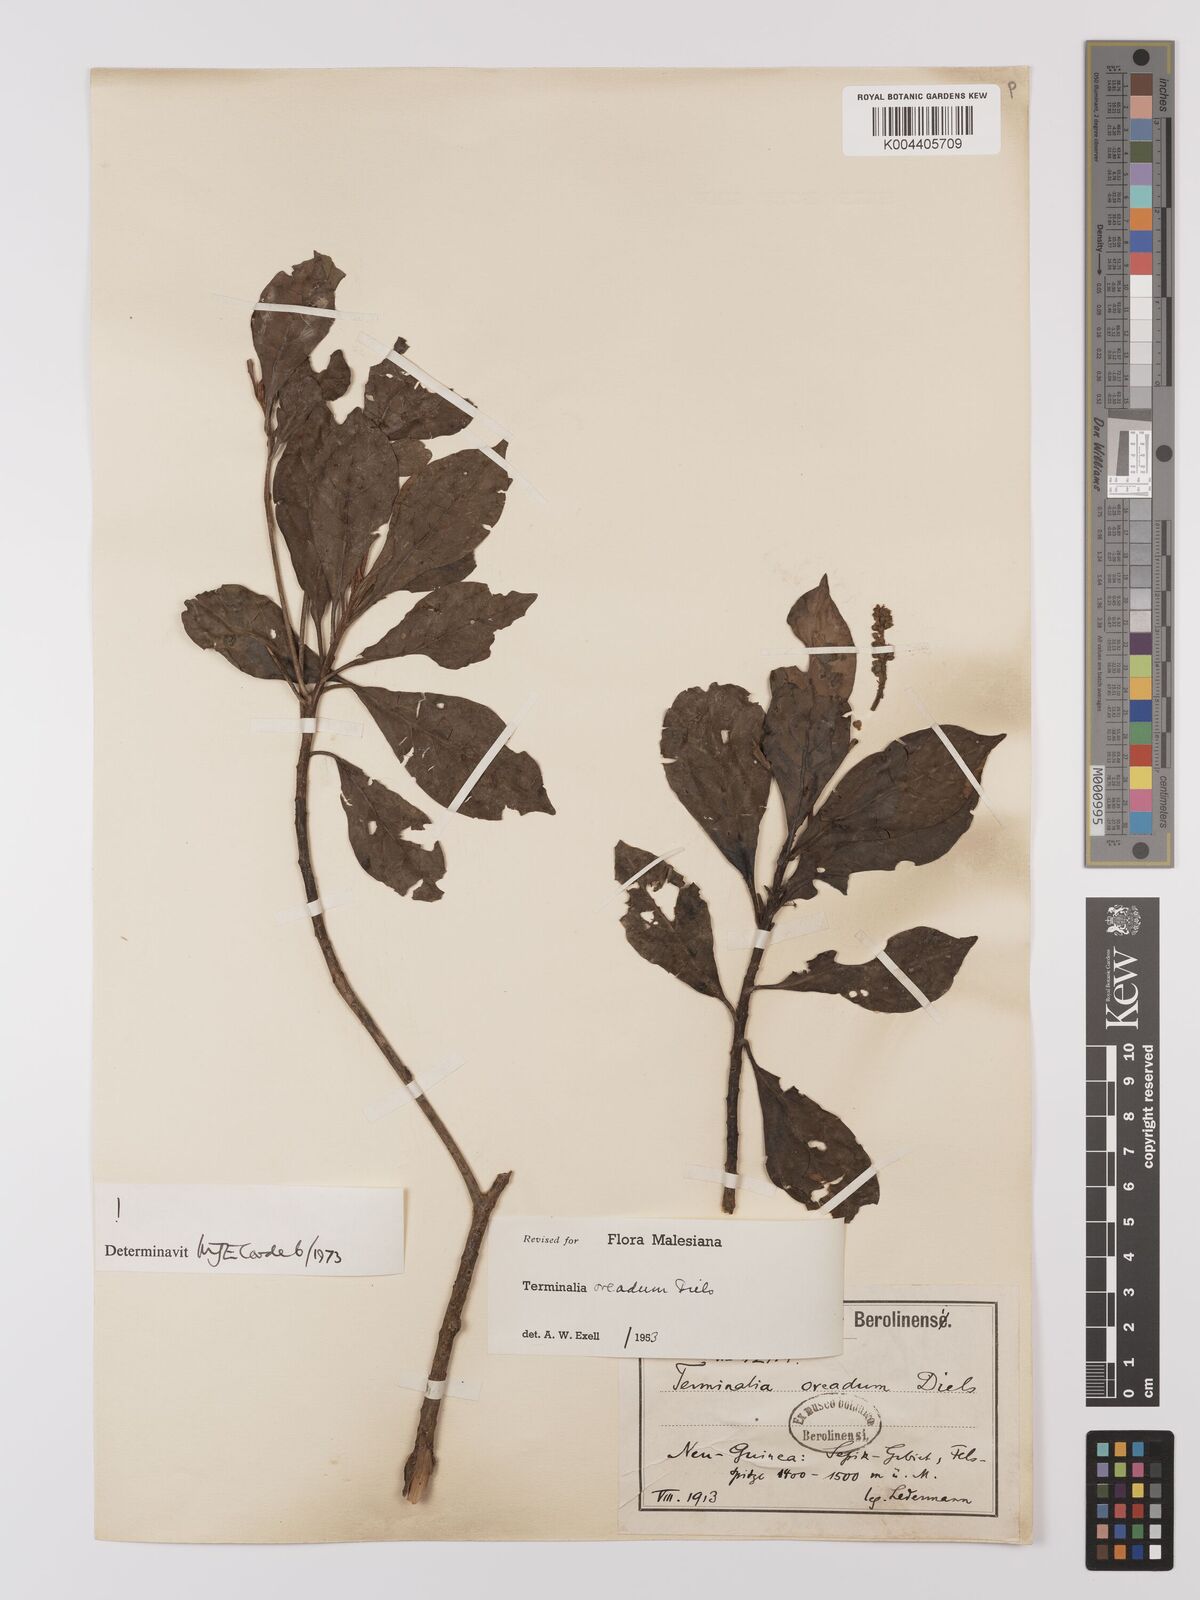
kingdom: Plantae
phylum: Tracheophyta
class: Magnoliopsida
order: Myrtales
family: Combretaceae
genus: Terminalia
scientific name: Terminalia oreadum
